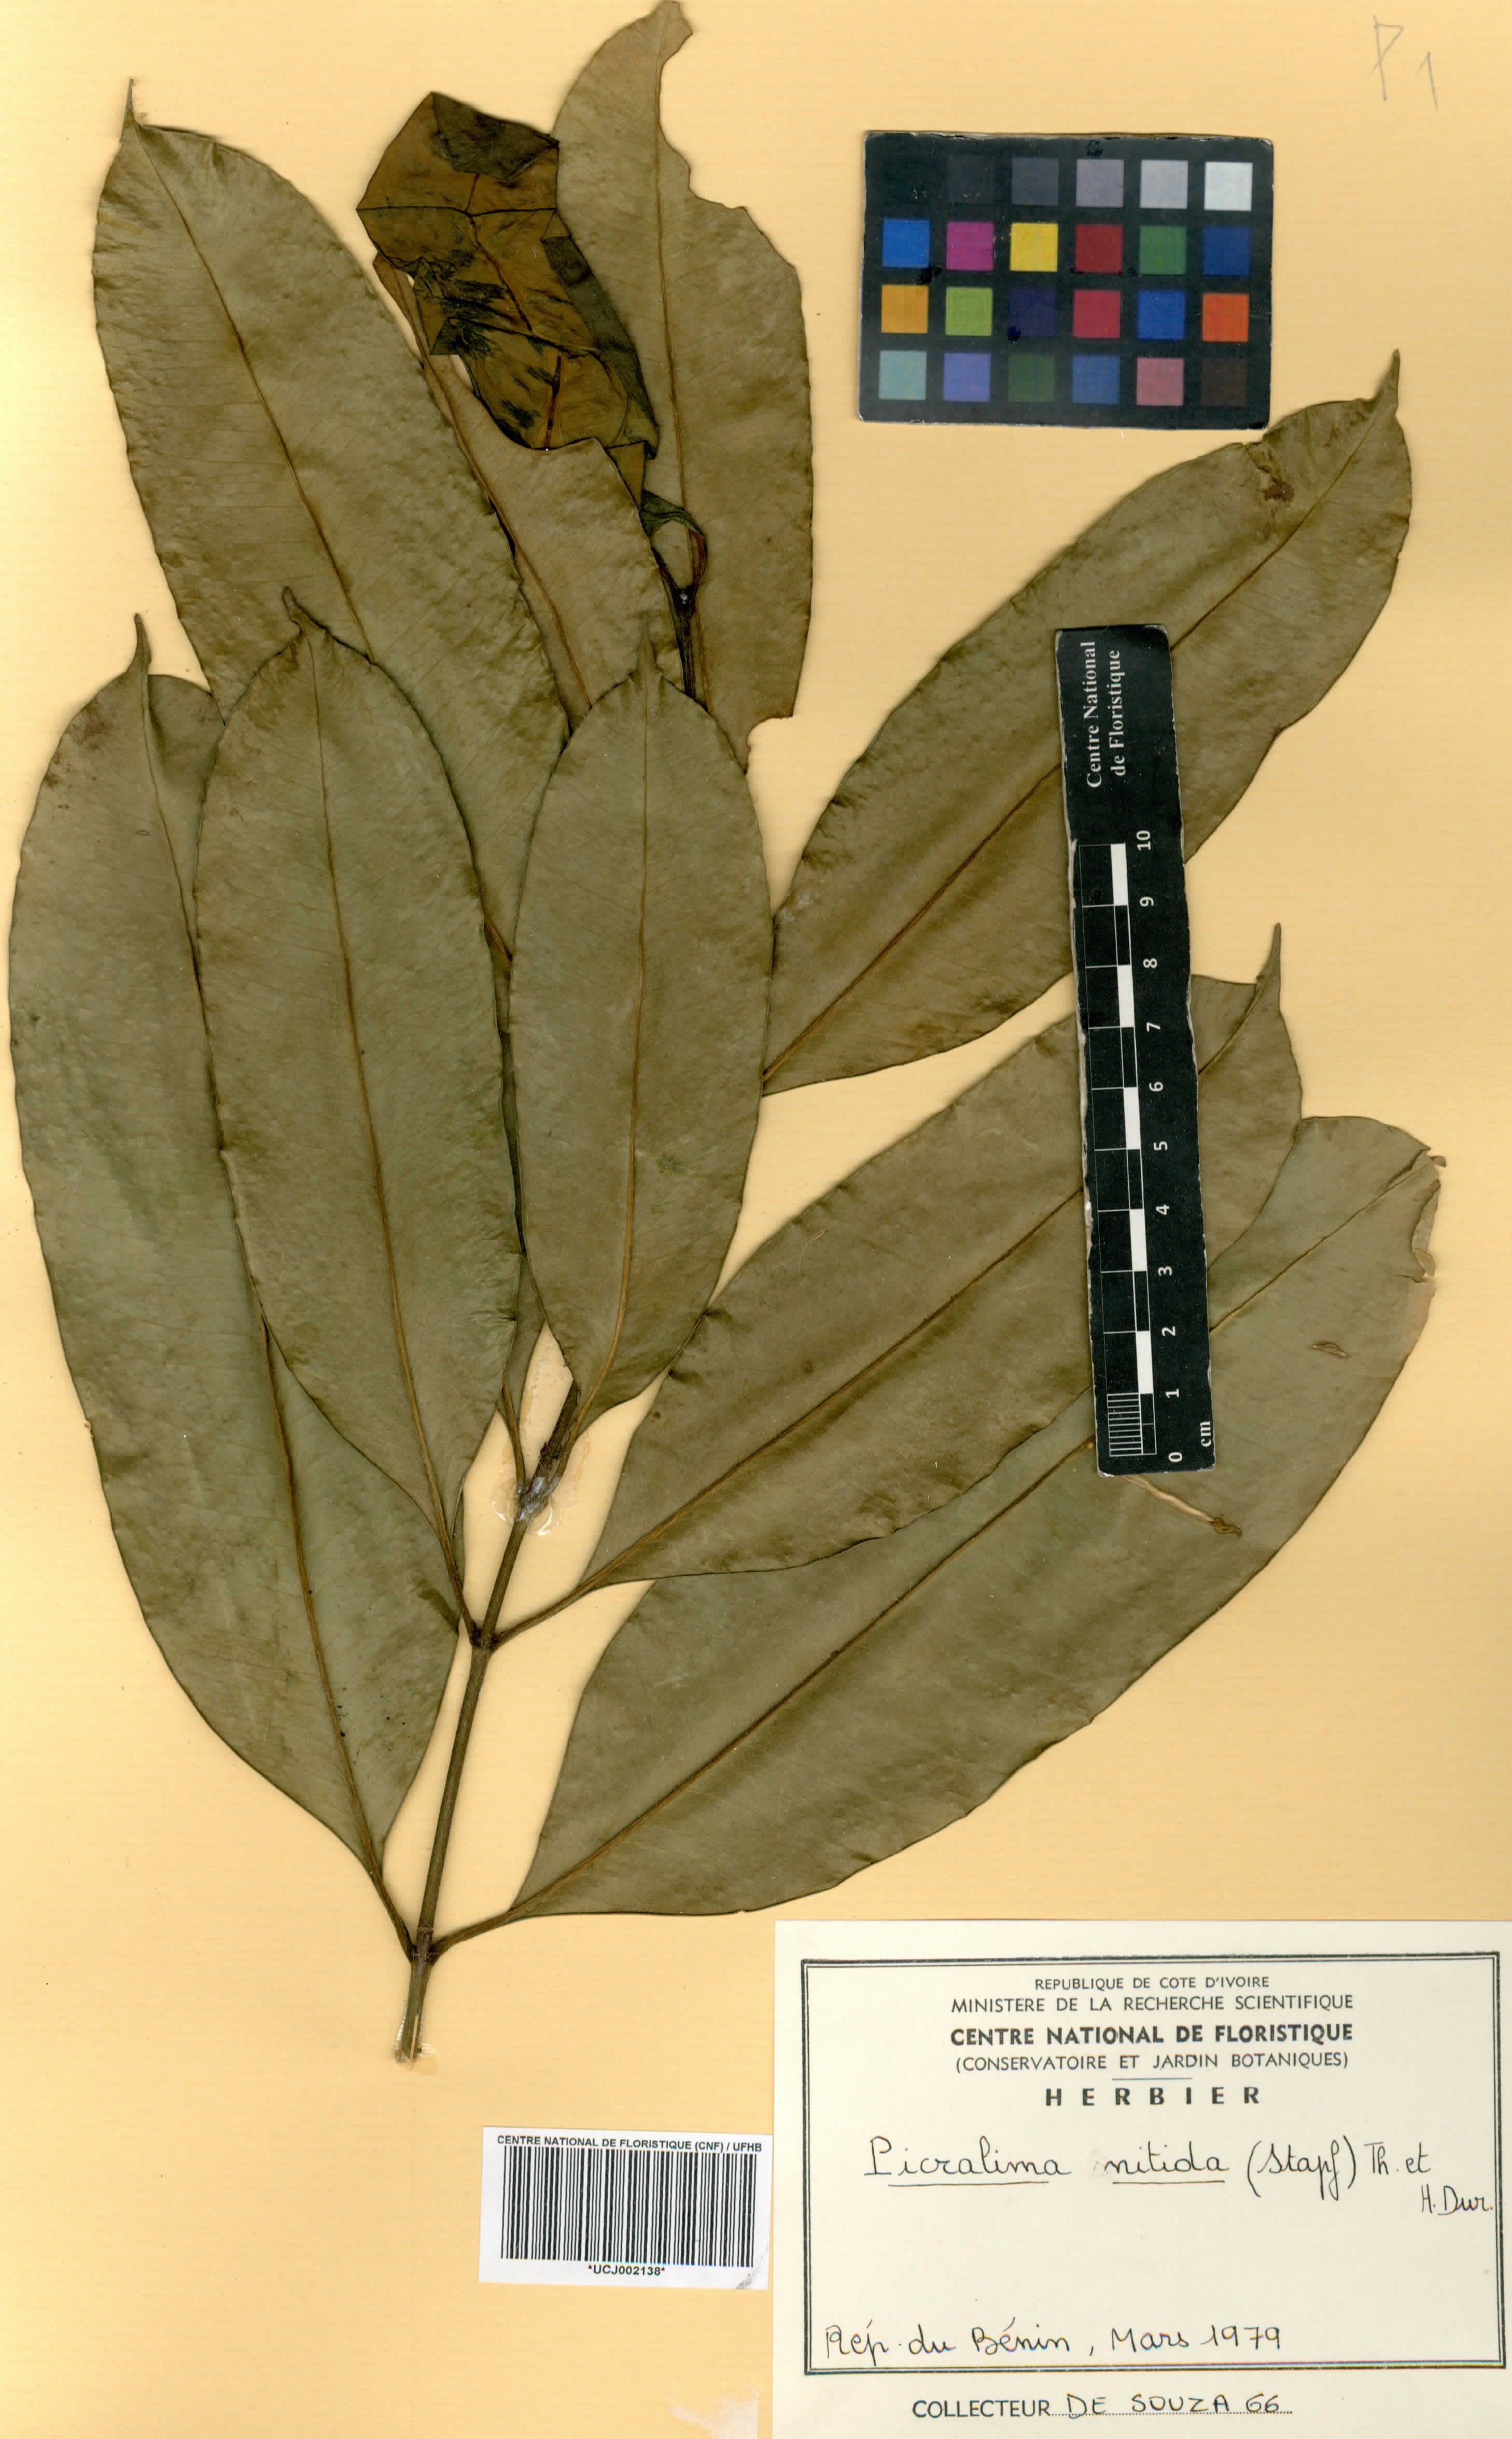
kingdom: Plantae
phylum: Tracheophyta
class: Magnoliopsida
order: Gentianales
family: Apocynaceae
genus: Picralima
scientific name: Picralima nitida
